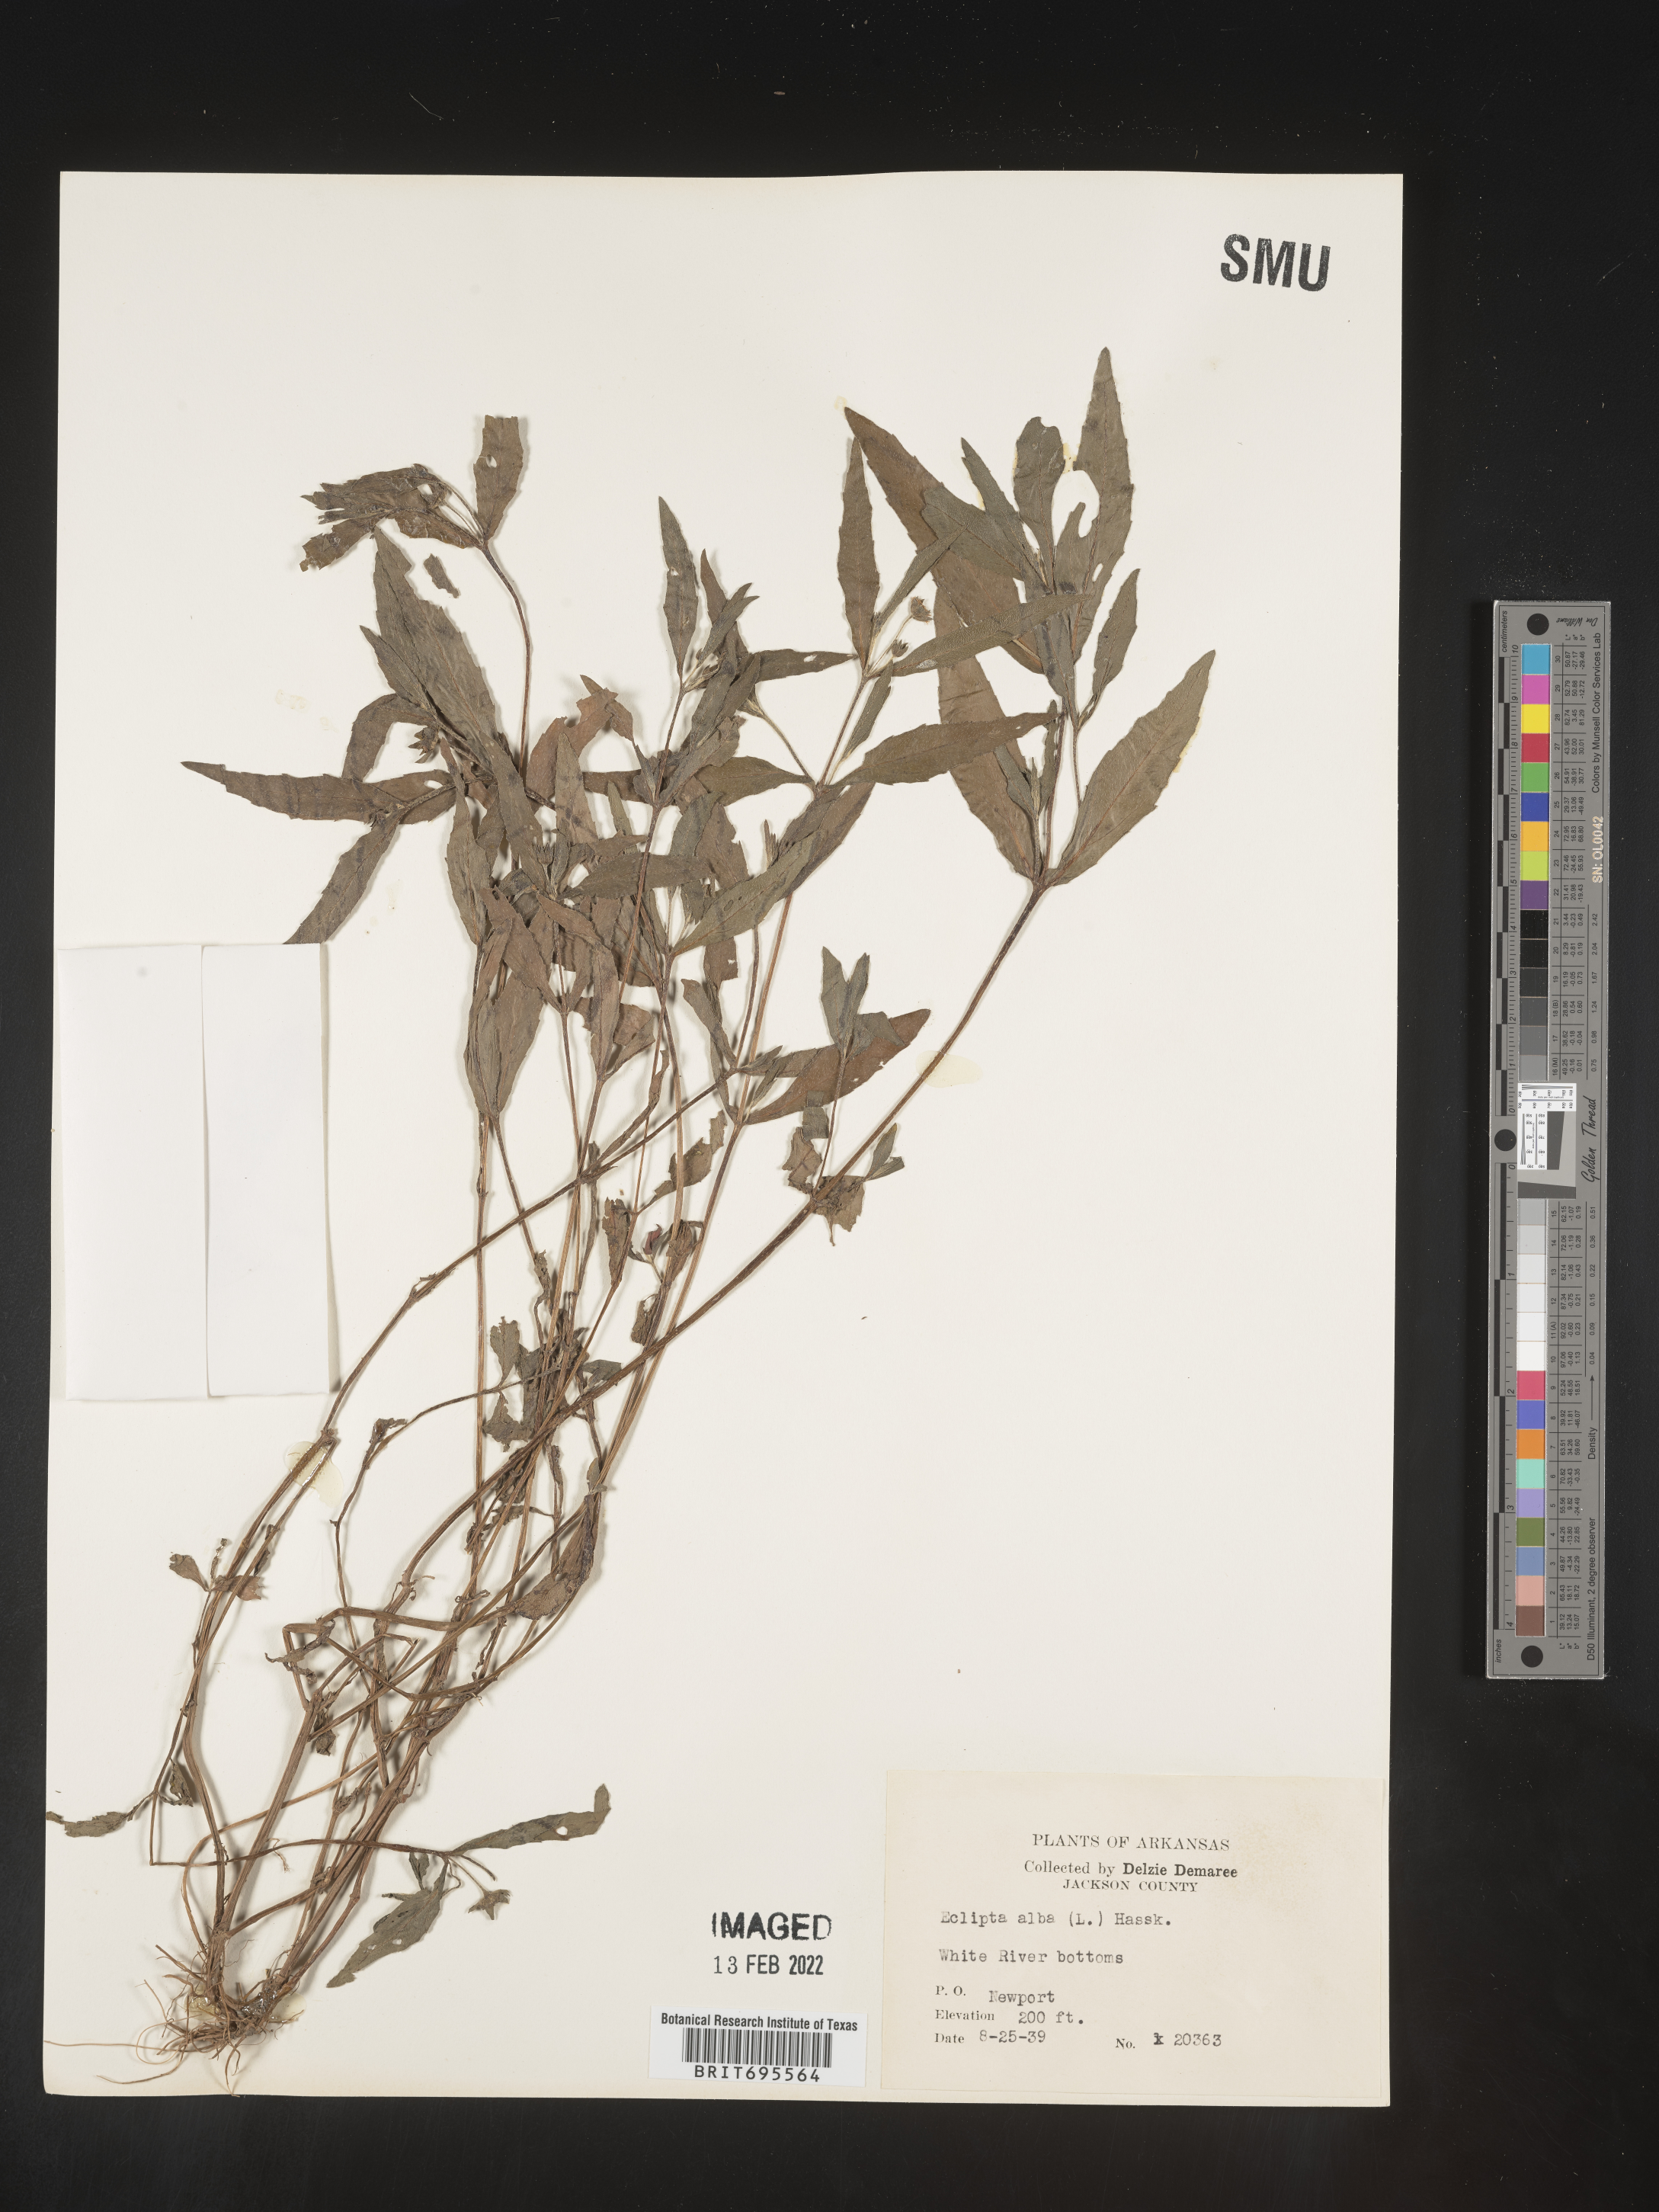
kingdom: Plantae
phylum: Tracheophyta
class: Magnoliopsida
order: Asterales
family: Asteraceae
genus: Eclipta
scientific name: Eclipta alba
